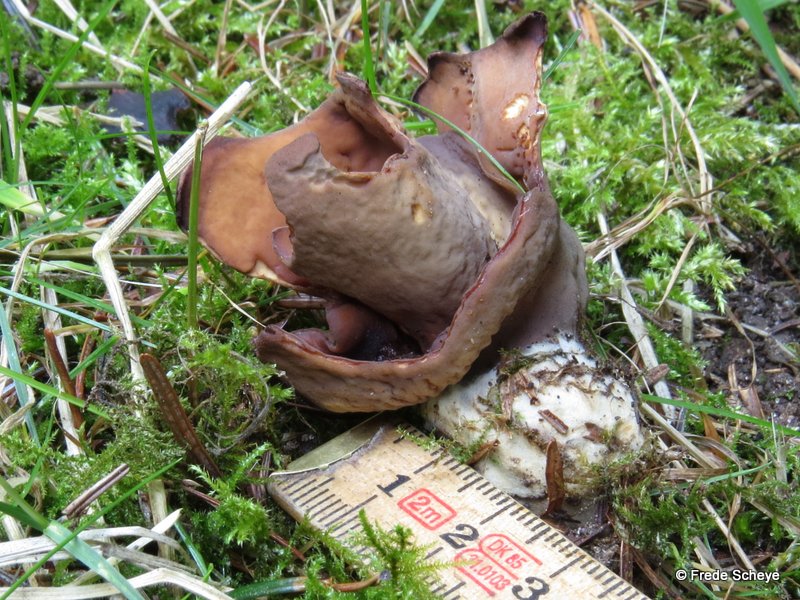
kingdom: Fungi
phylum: Ascomycota
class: Pezizomycetes
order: Pezizales
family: Otideaceae
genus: Otidea
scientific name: Otidea bufonia
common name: brun ørebæger
